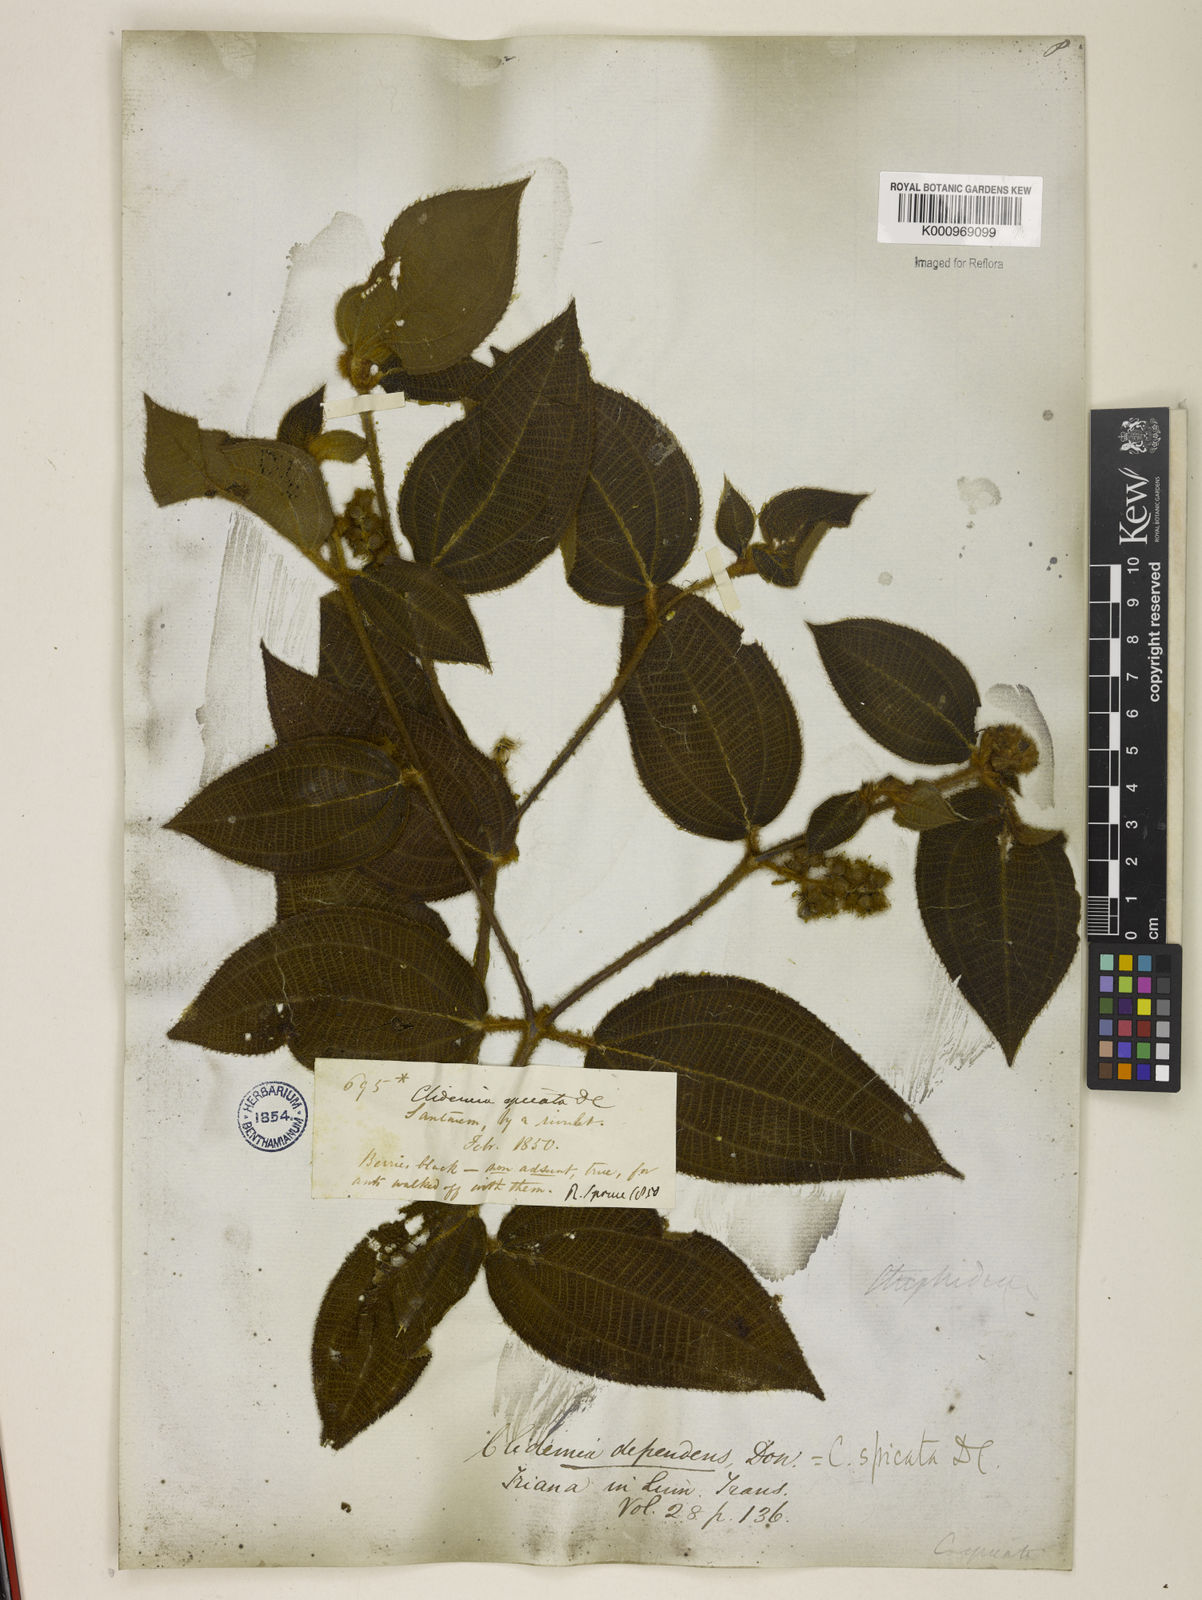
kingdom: Plantae
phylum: Tracheophyta
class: Magnoliopsida
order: Myrtales
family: Melastomataceae
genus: Miconia
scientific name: Miconia dependens
